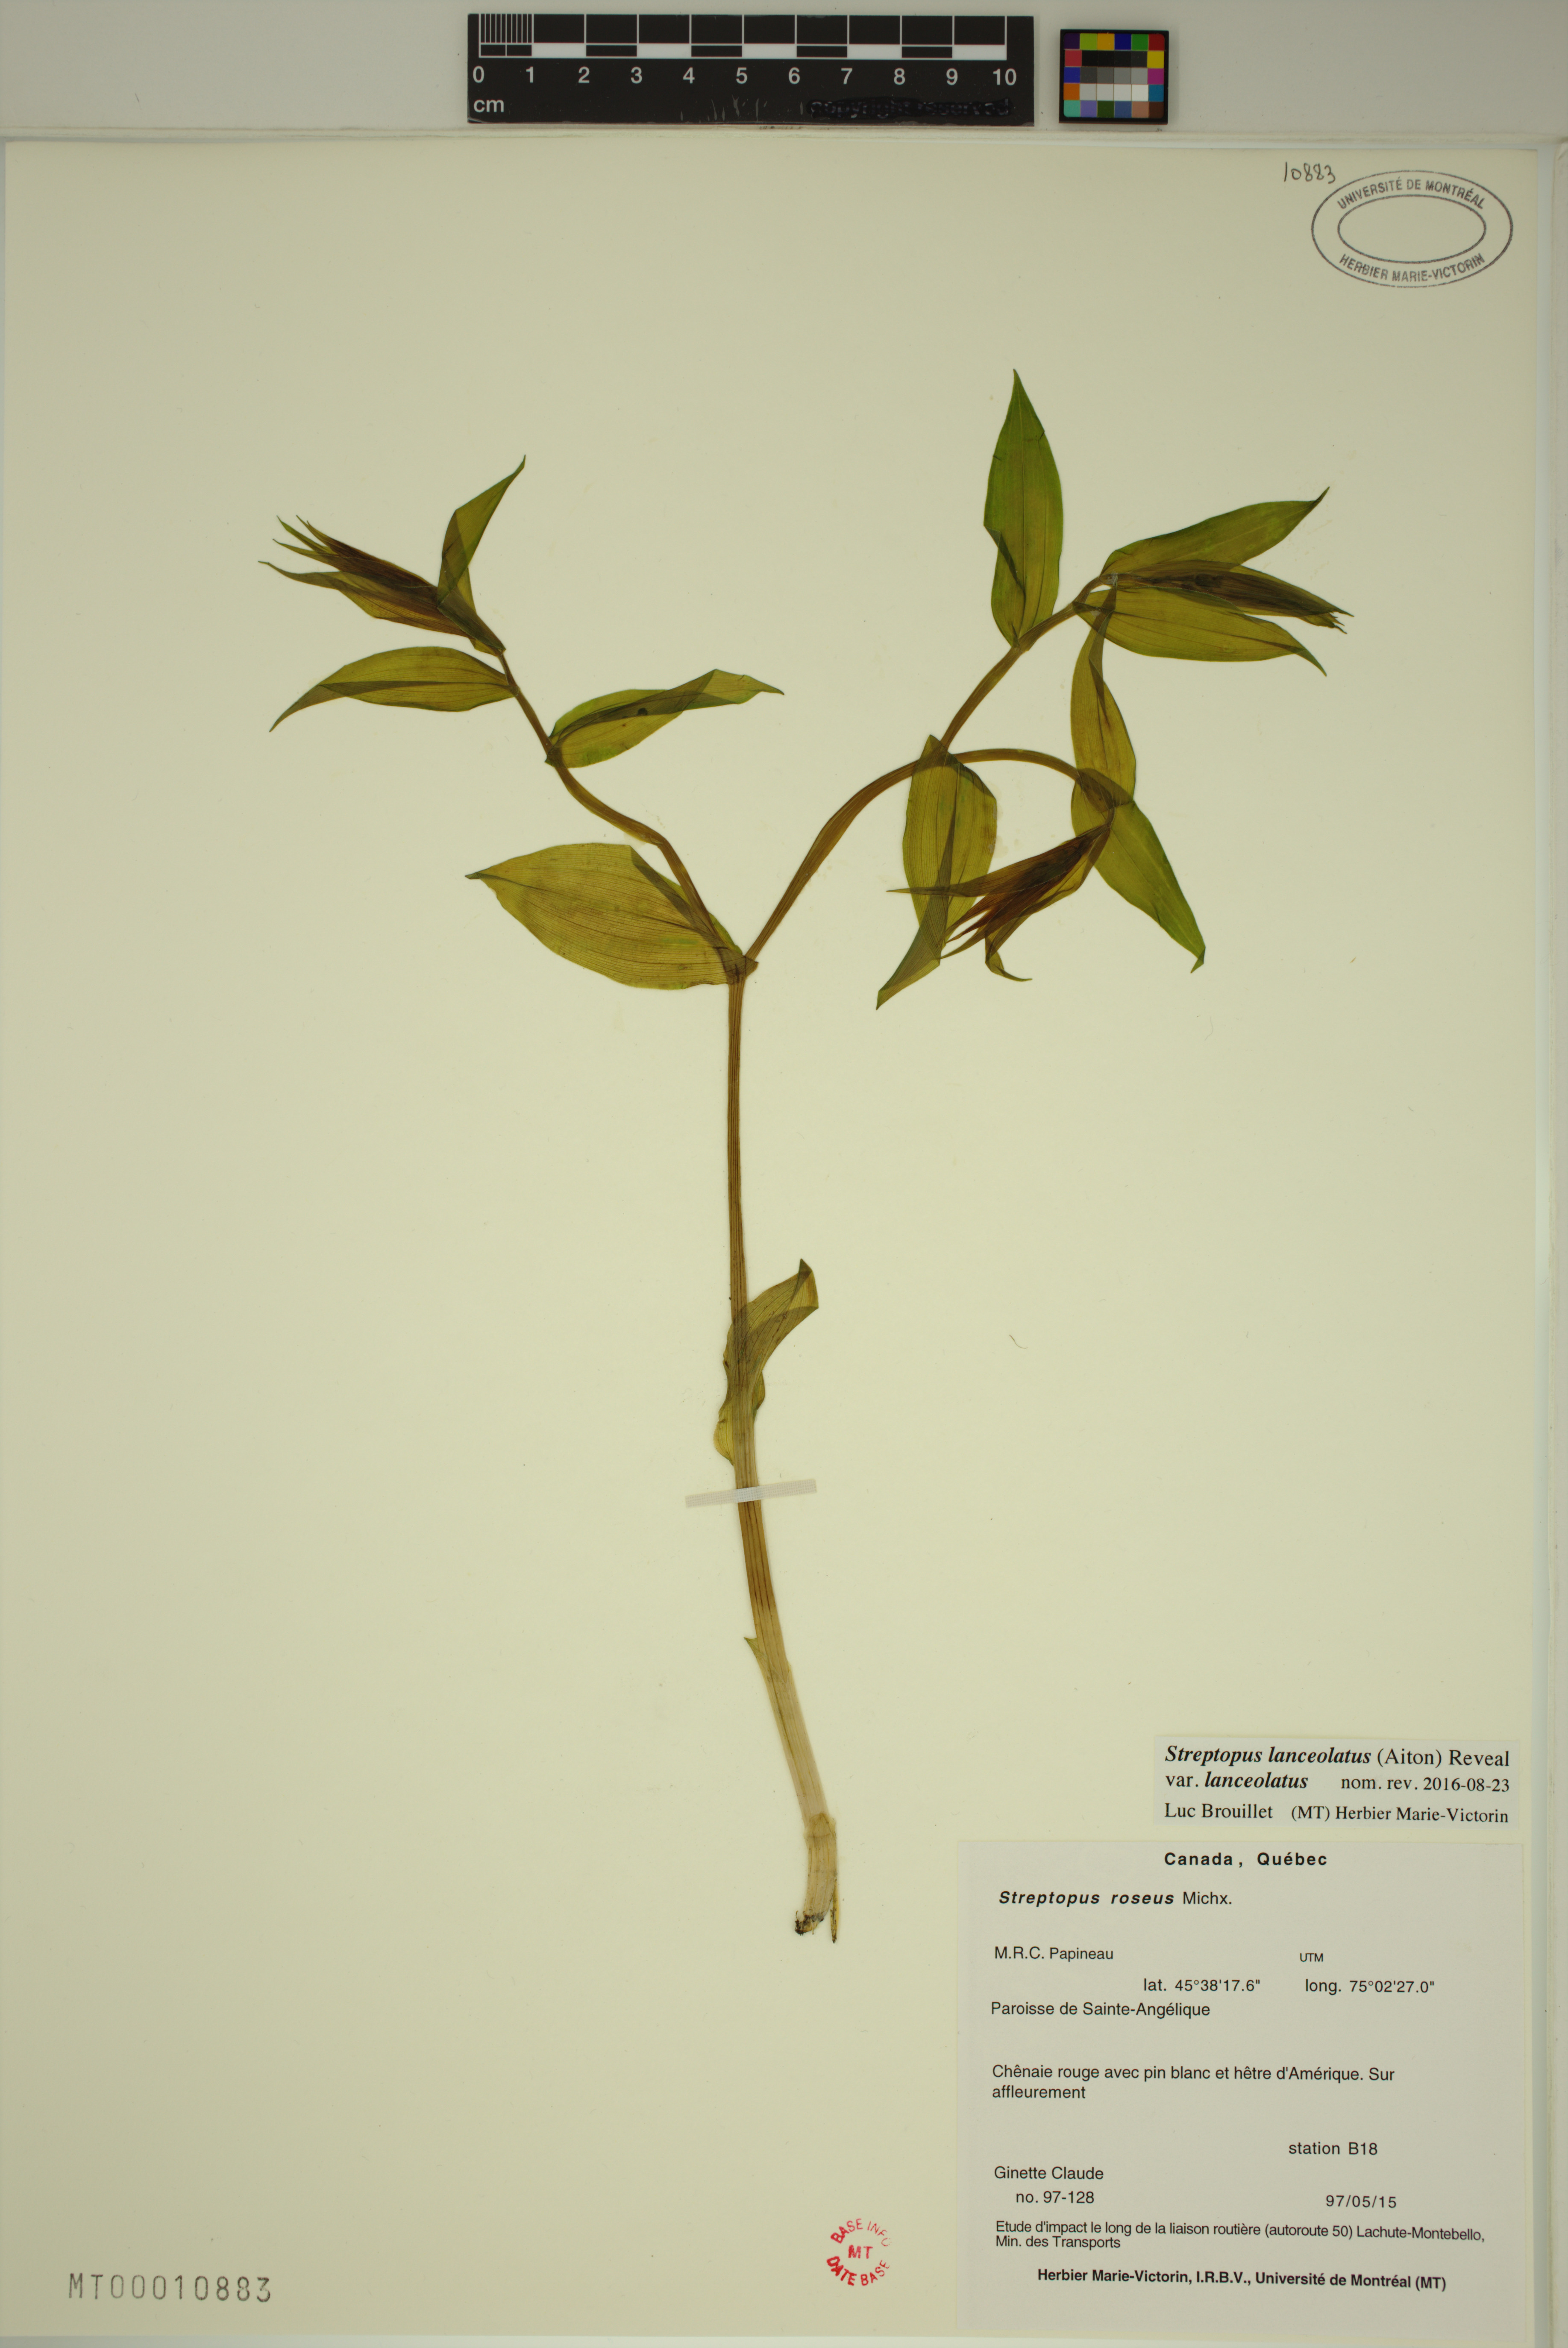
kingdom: Plantae
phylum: Tracheophyta
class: Liliopsida
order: Liliales
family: Liliaceae
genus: Streptopus
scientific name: Streptopus lanceolatus
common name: Rose mandarin
